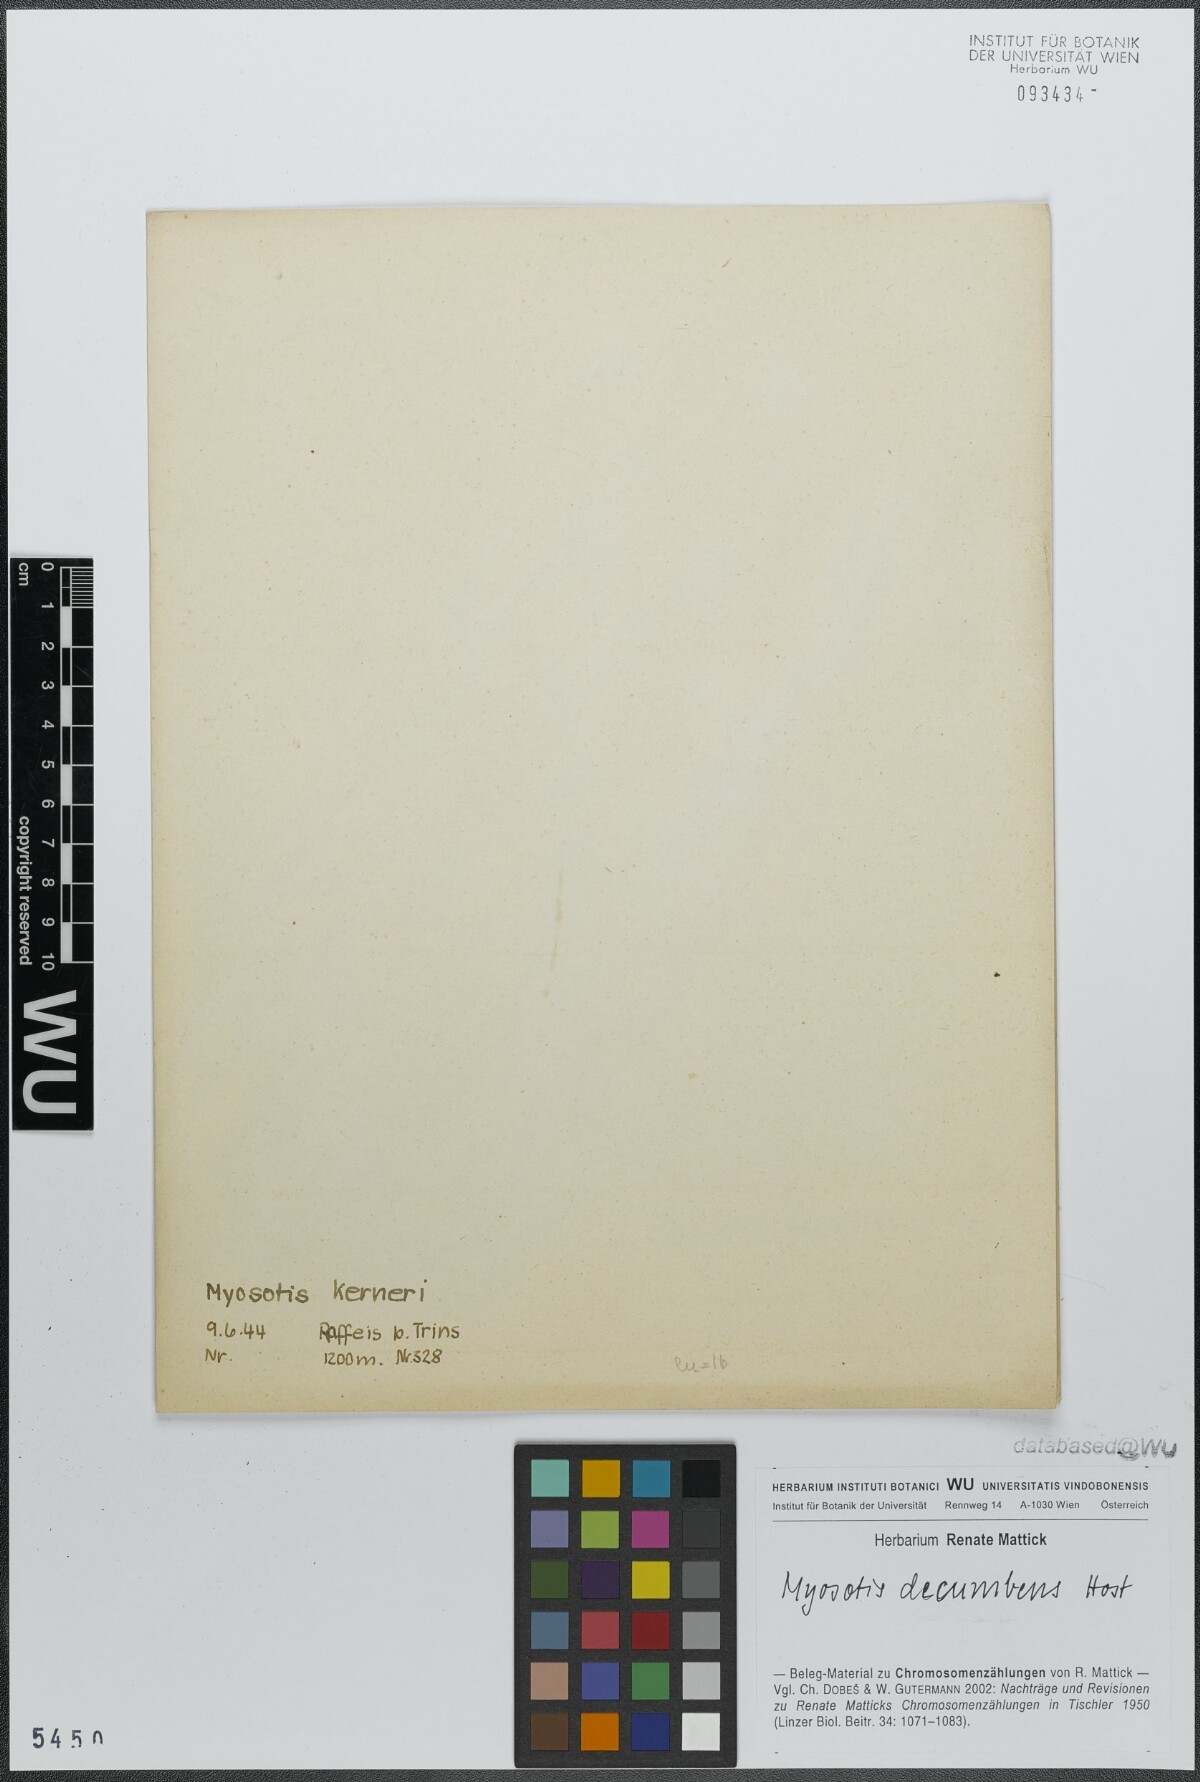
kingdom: Plantae
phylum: Tracheophyta
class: Magnoliopsida
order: Boraginales
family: Boraginaceae
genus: Myosotis
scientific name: Myosotis decumbens
